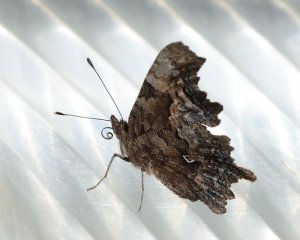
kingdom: Animalia
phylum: Arthropoda
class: Insecta
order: Lepidoptera
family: Nymphalidae
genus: Polygonia
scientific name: Polygonia faunus
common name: Green Comma
